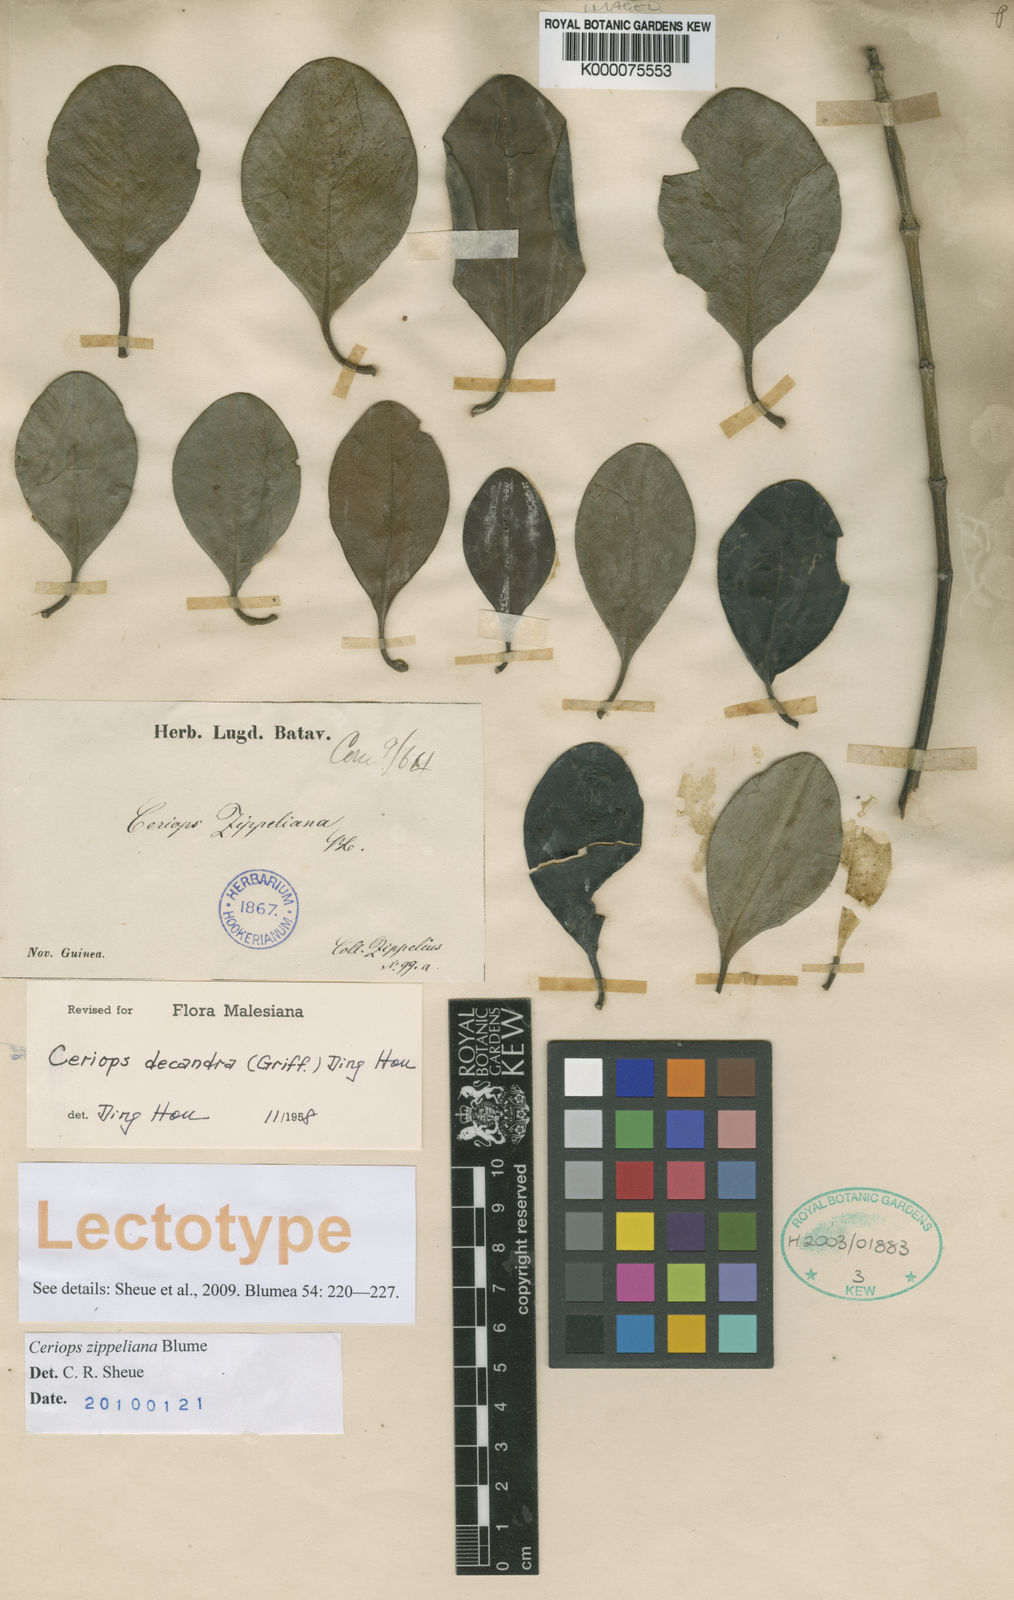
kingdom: Plantae
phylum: Tracheophyta
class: Magnoliopsida
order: Malpighiales
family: Rhizophoraceae
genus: Ceriops
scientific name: Ceriops
